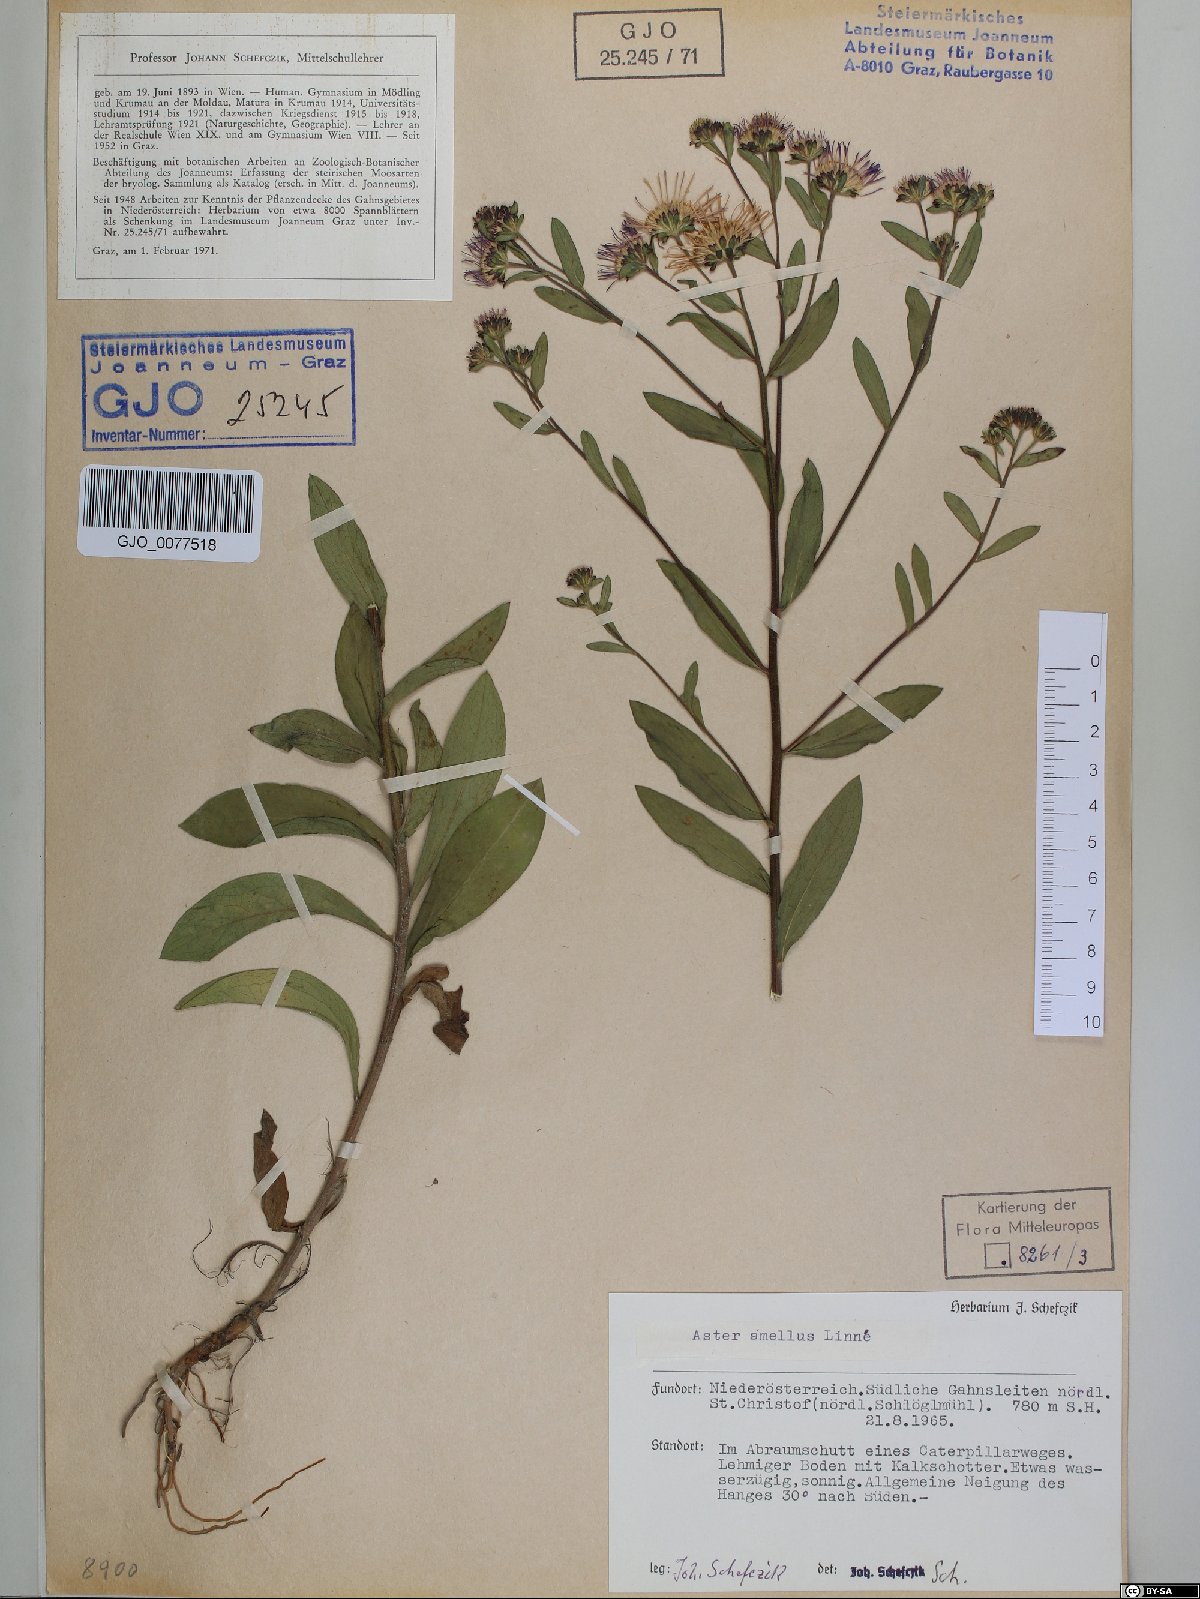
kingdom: Plantae
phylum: Tracheophyta
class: Magnoliopsida
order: Asterales
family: Asteraceae
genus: Aster
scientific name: Aster amellus
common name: European michaelmas daisy
